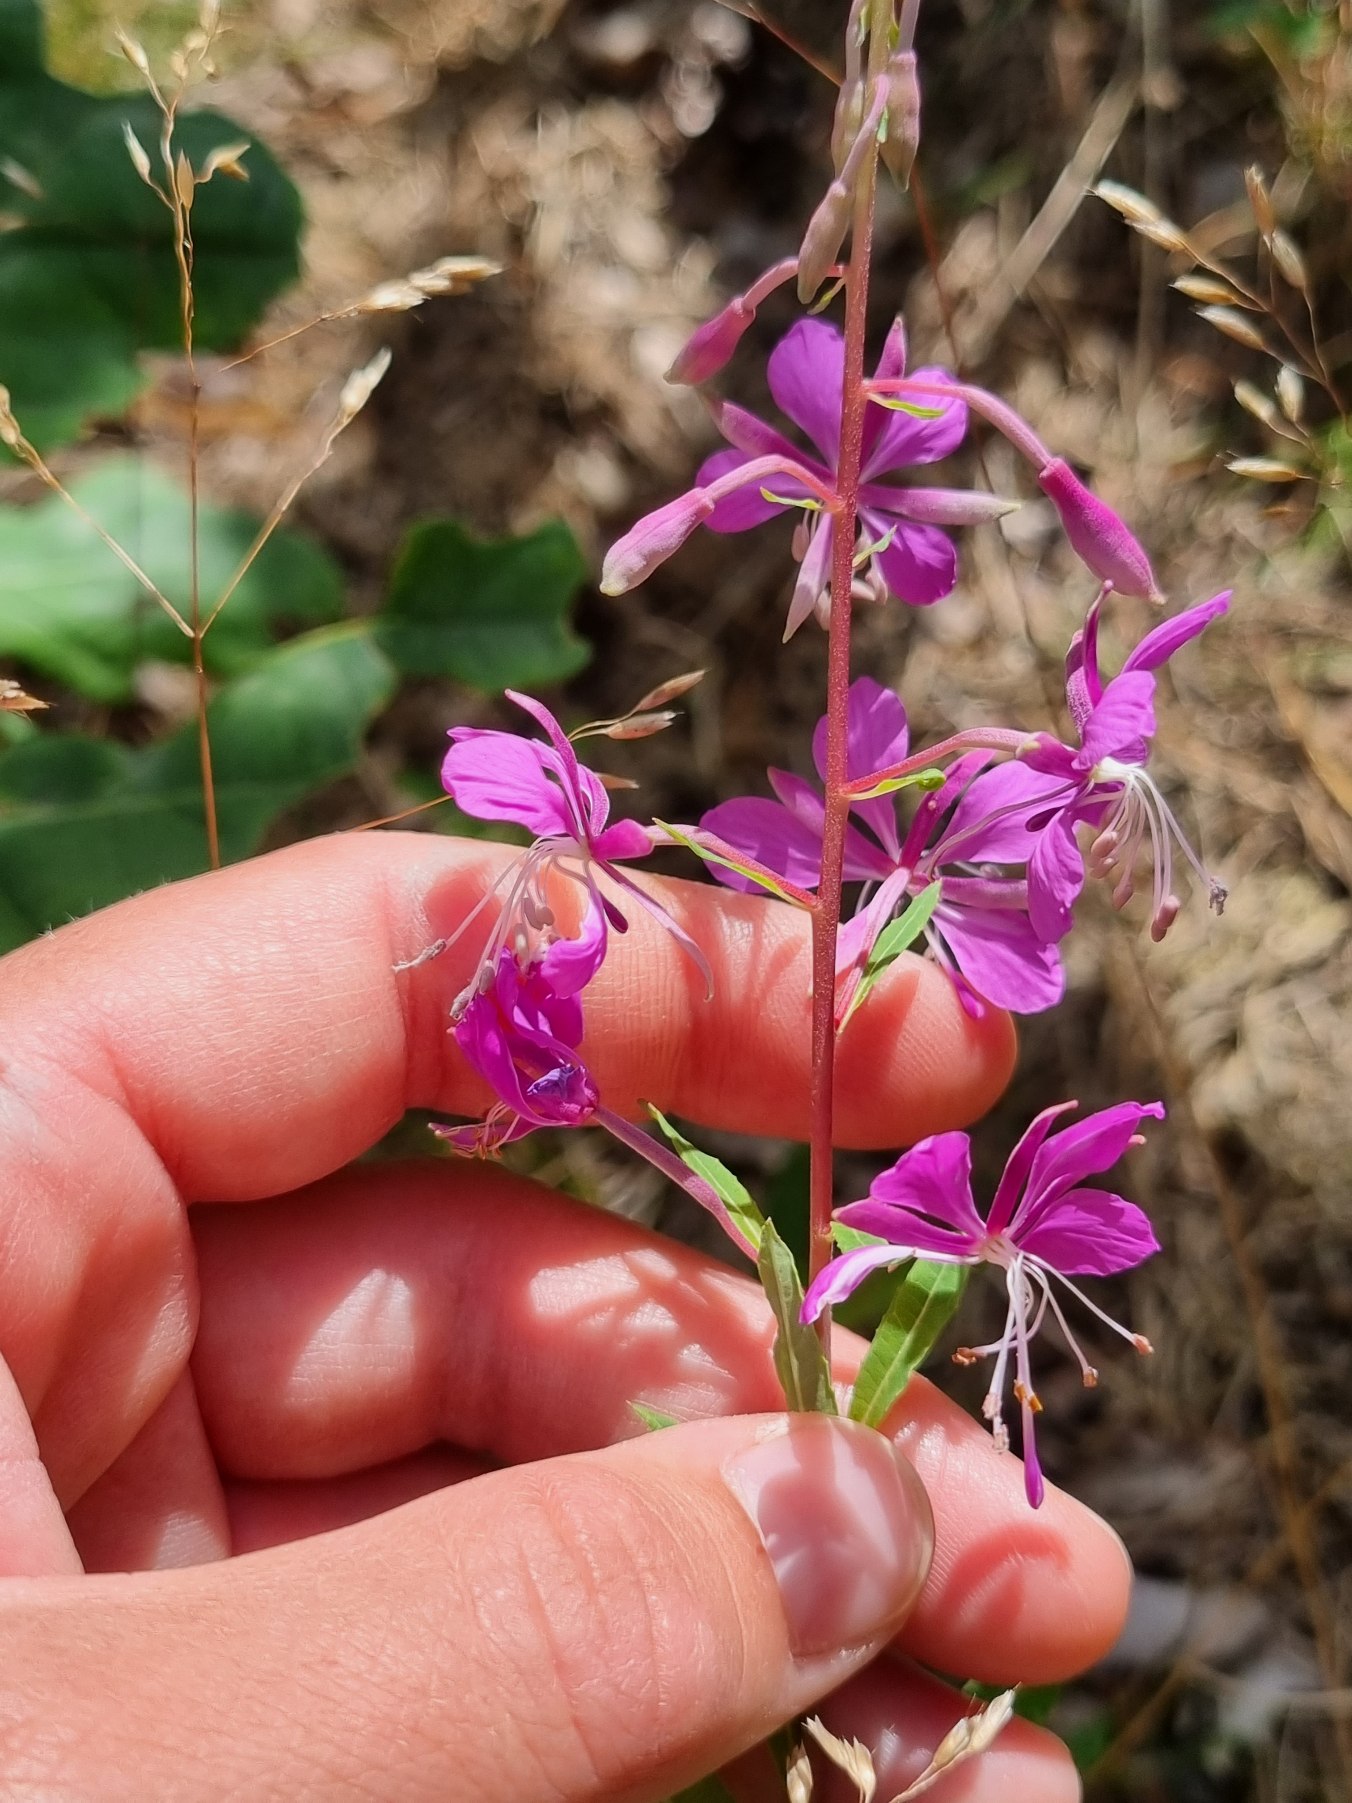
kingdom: Plantae
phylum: Tracheophyta
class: Magnoliopsida
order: Myrtales
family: Onagraceae
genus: Chamaenerion
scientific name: Chamaenerion angustifolium
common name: Gederams
